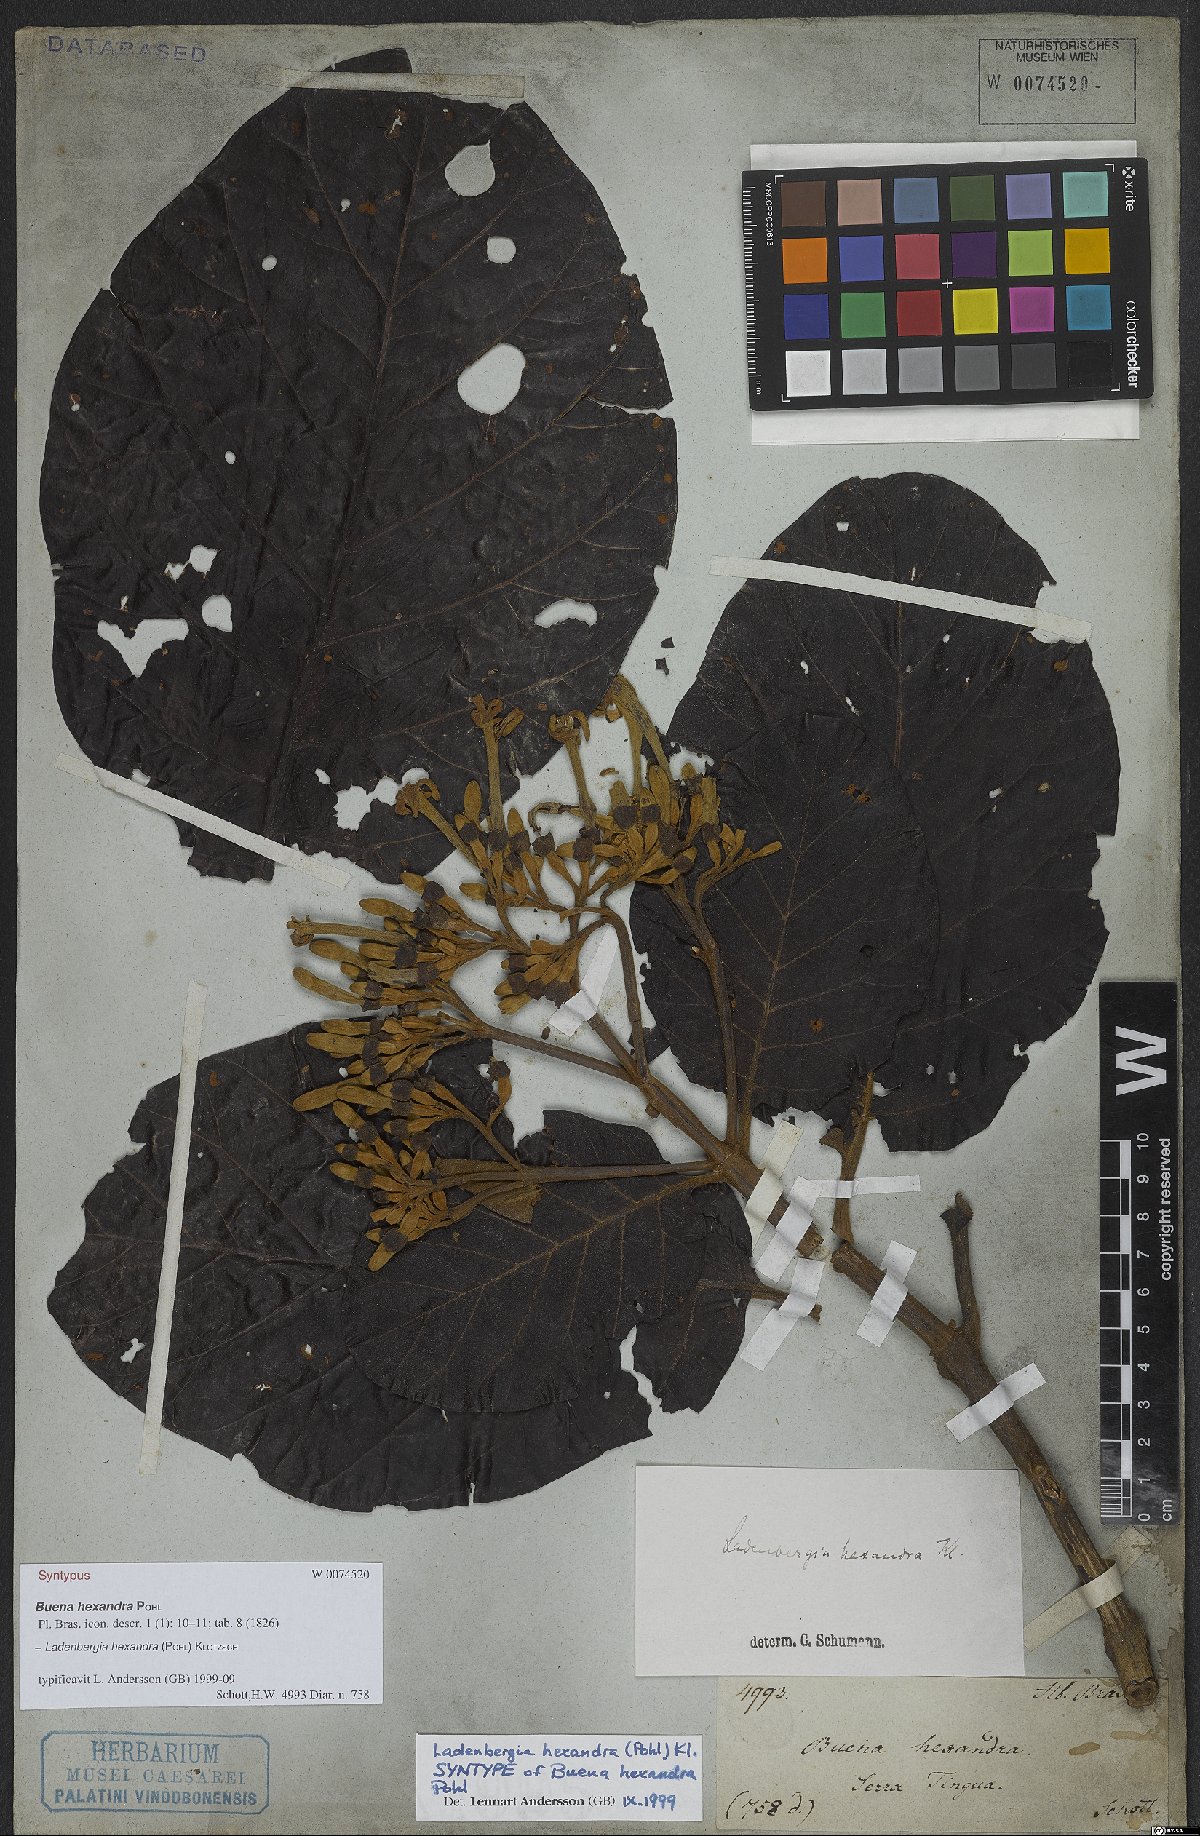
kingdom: Plantae
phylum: Tracheophyta
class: Magnoliopsida
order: Gentianales
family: Rubiaceae
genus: Ladenbergia
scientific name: Ladenbergia hexandra
